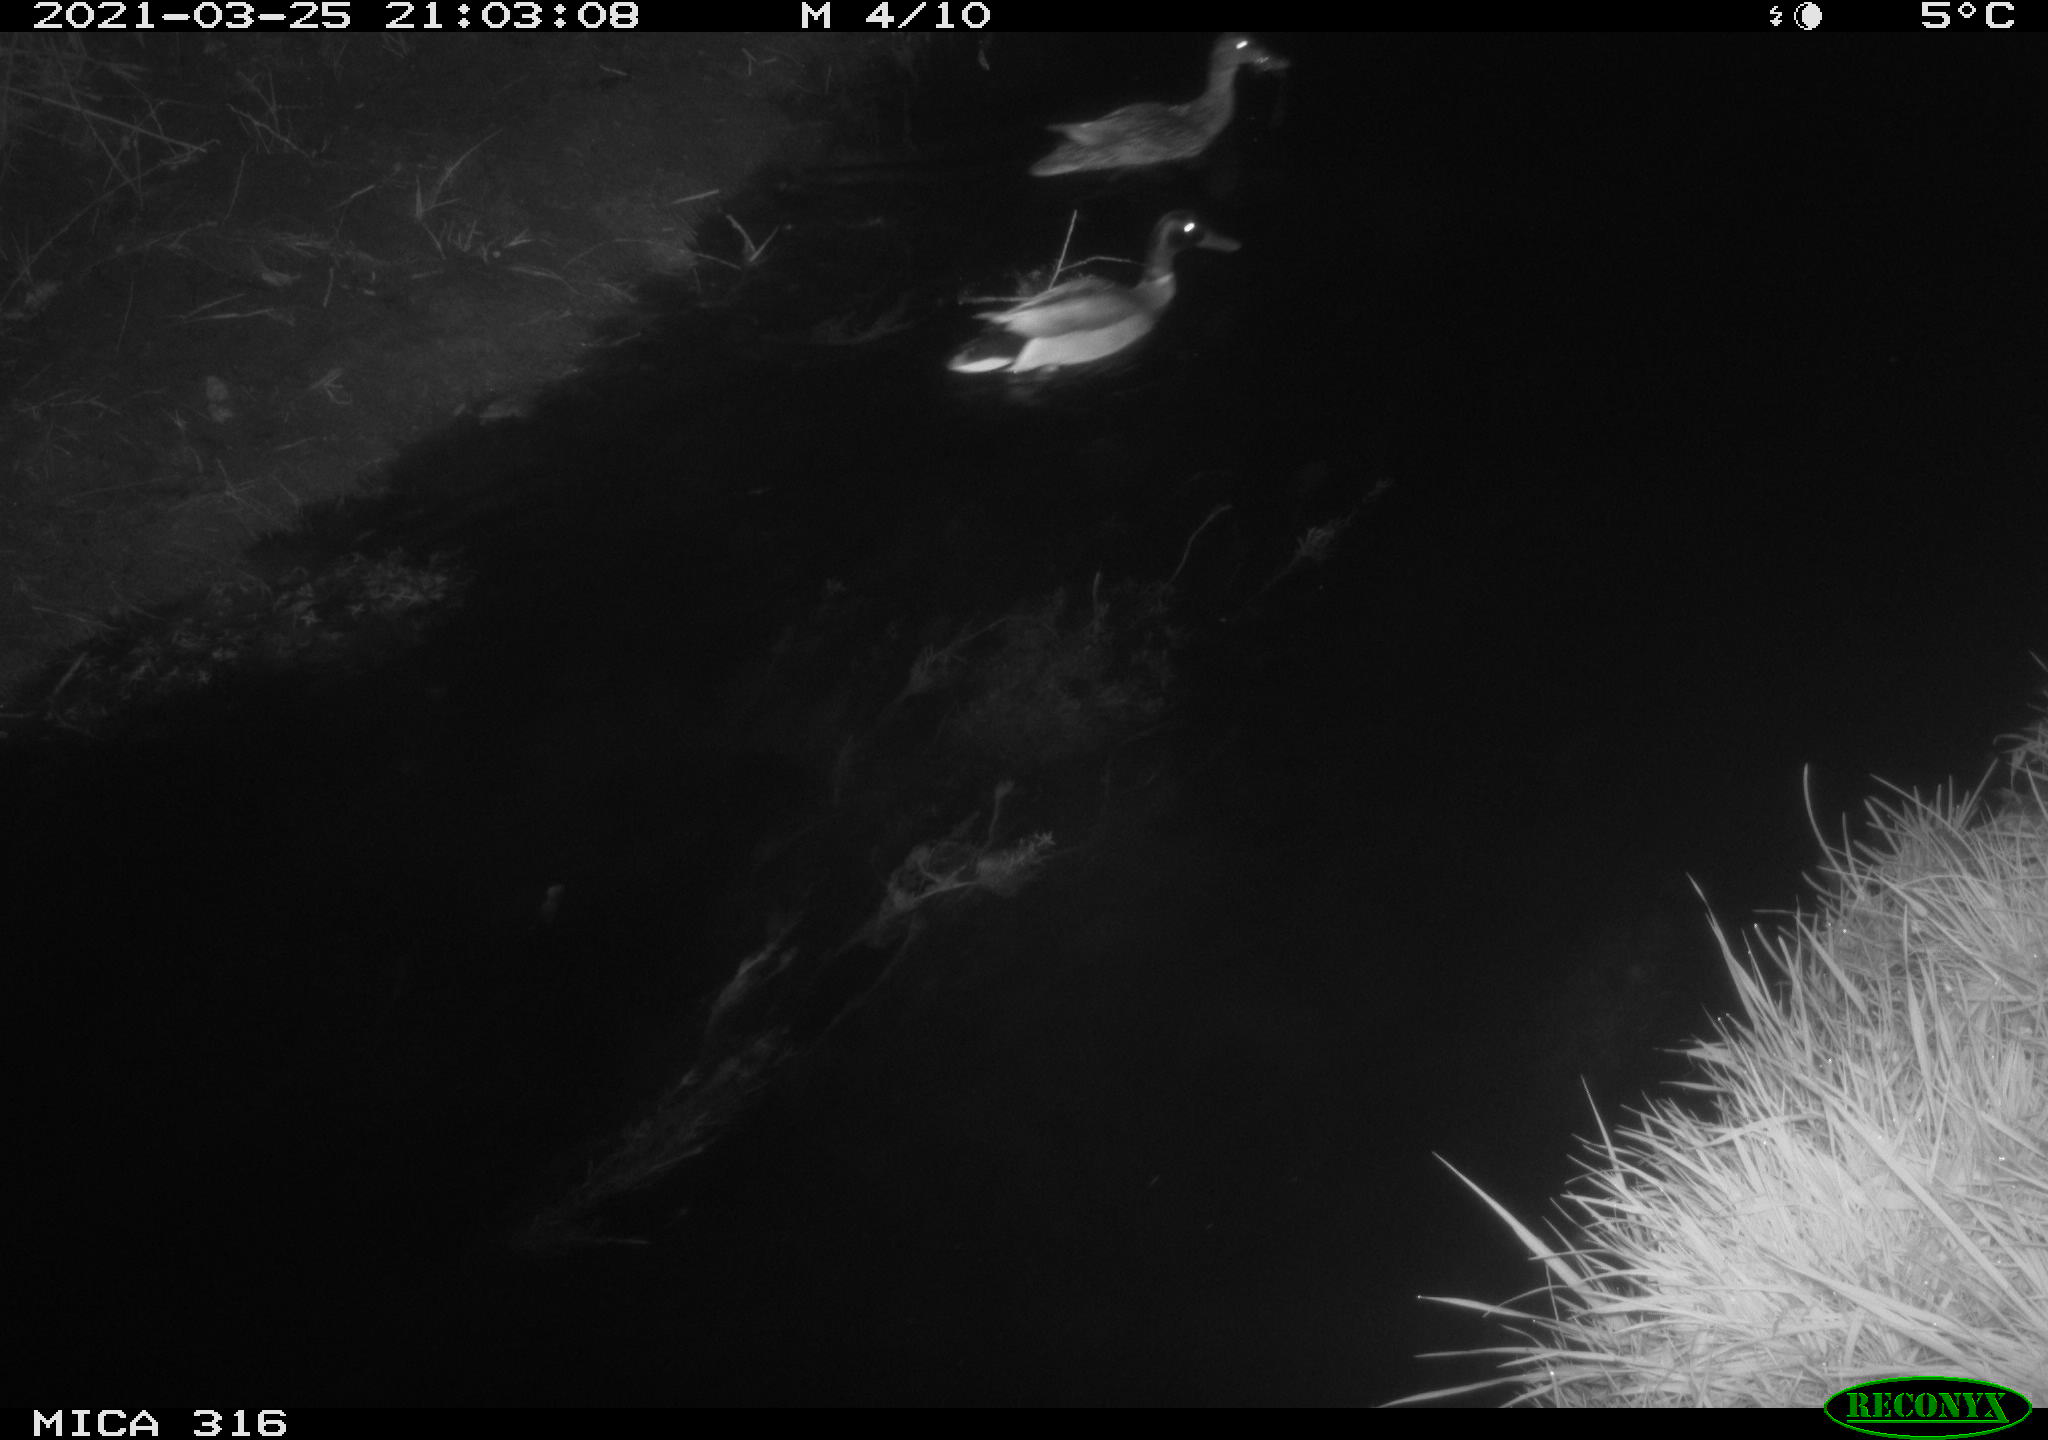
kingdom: Animalia
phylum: Chordata
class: Aves
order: Anseriformes
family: Anatidae
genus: Anas
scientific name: Anas crecca
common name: Eurasian teal
